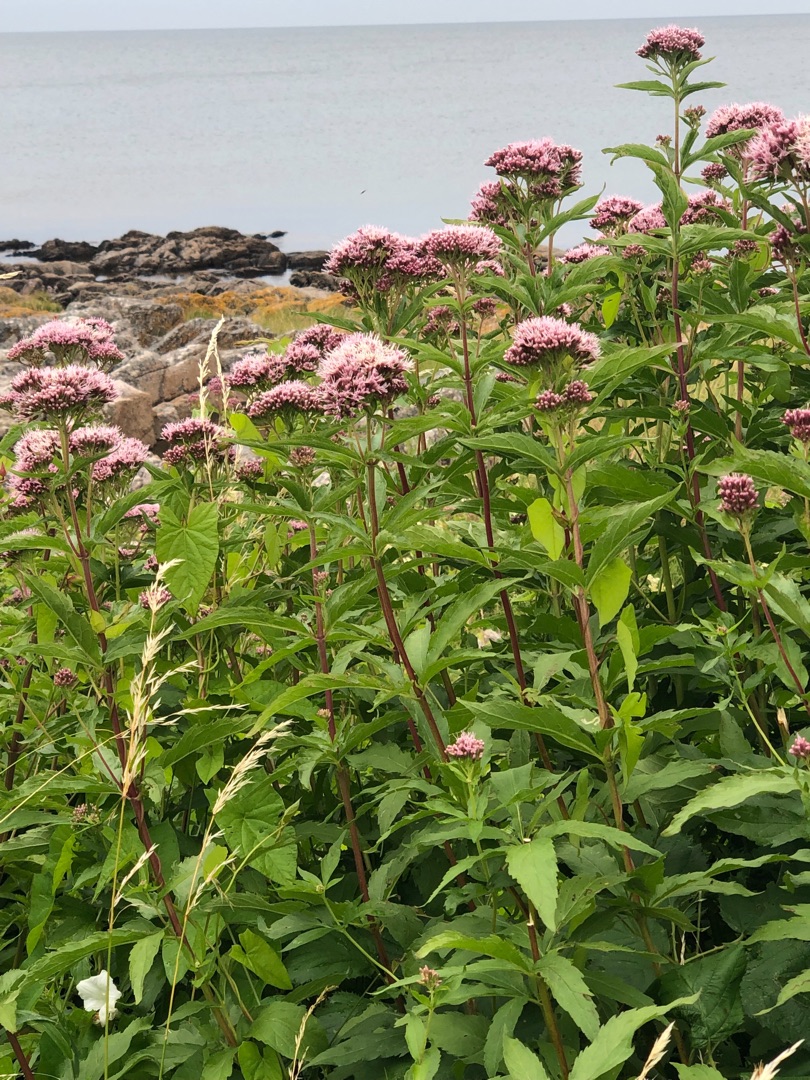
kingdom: Plantae
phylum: Tracheophyta
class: Magnoliopsida
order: Asterales
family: Asteraceae
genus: Eupatorium
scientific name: Eupatorium cannabinum
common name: Hjortetrøst
